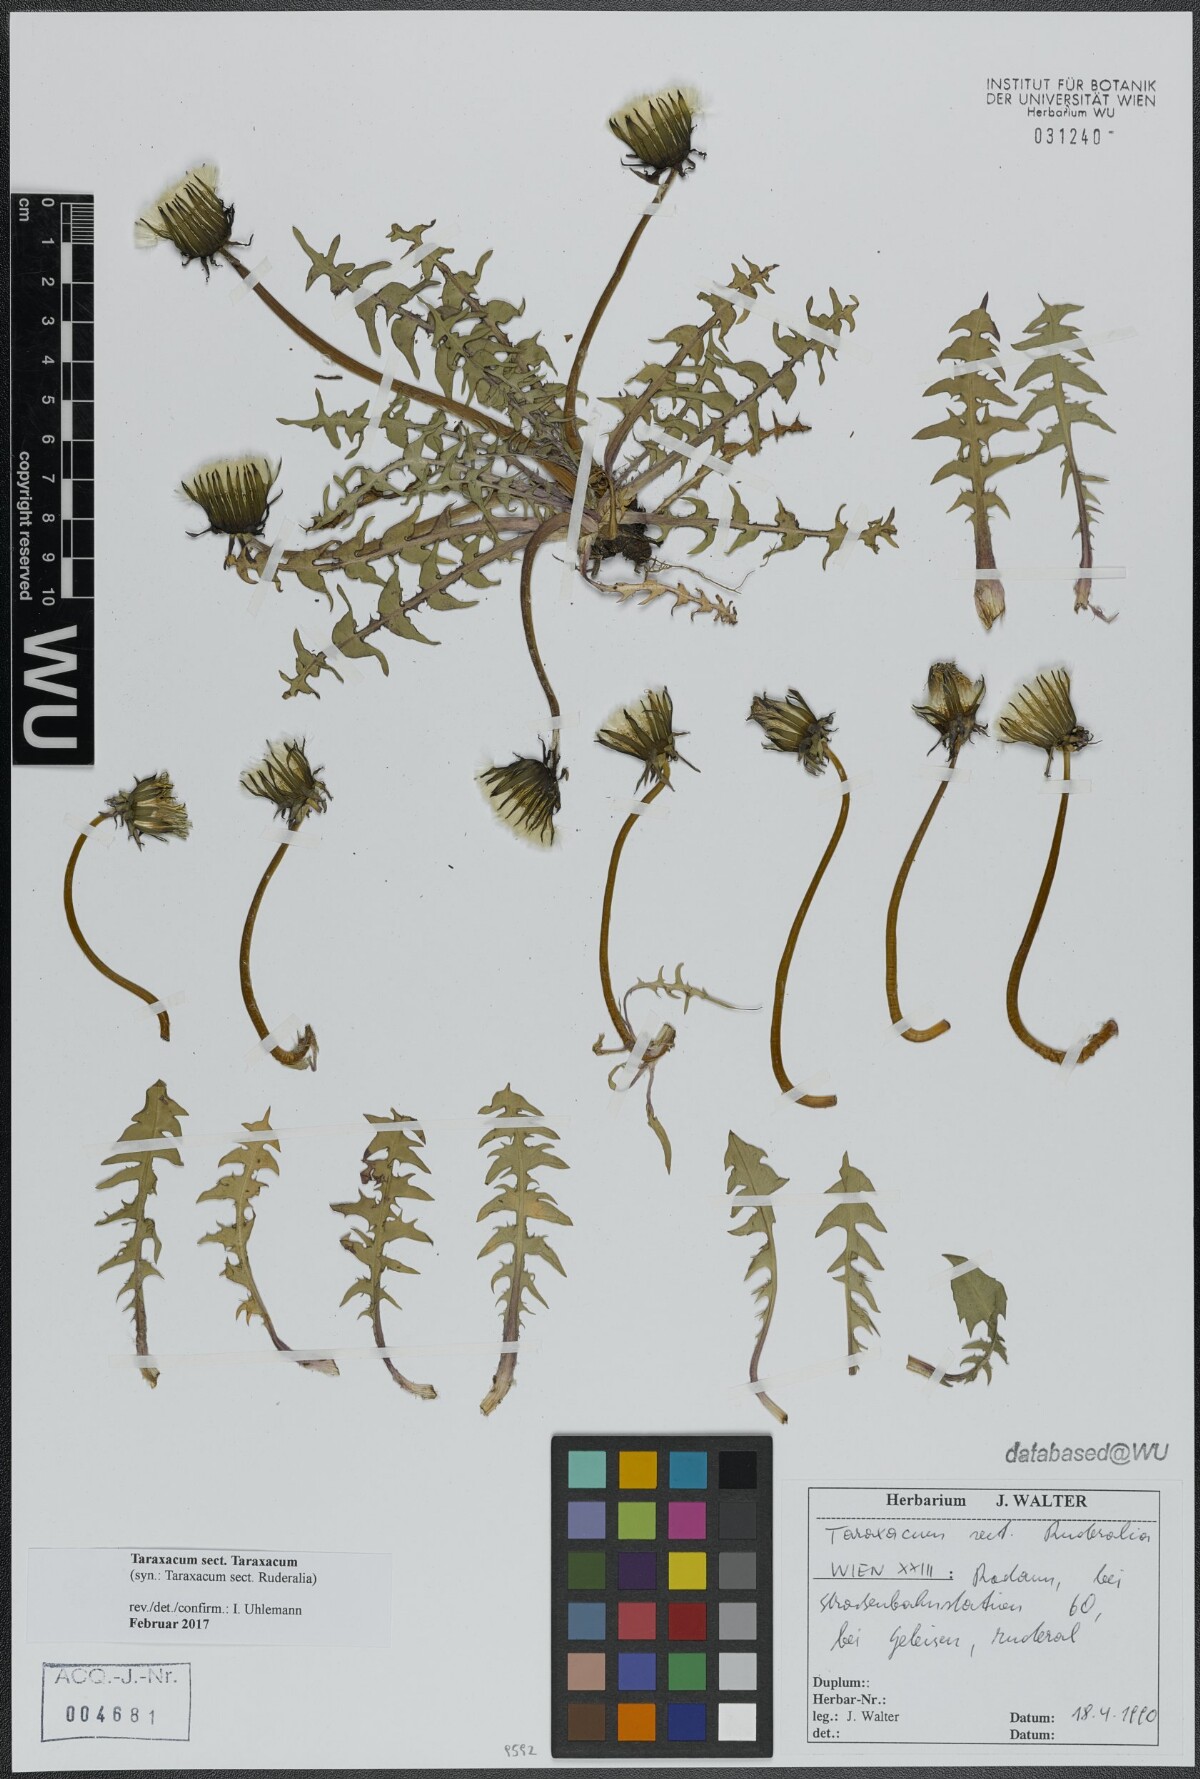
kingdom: Plantae
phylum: Tracheophyta
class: Magnoliopsida
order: Asterales
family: Asteraceae
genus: Taraxacum
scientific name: Taraxacum
